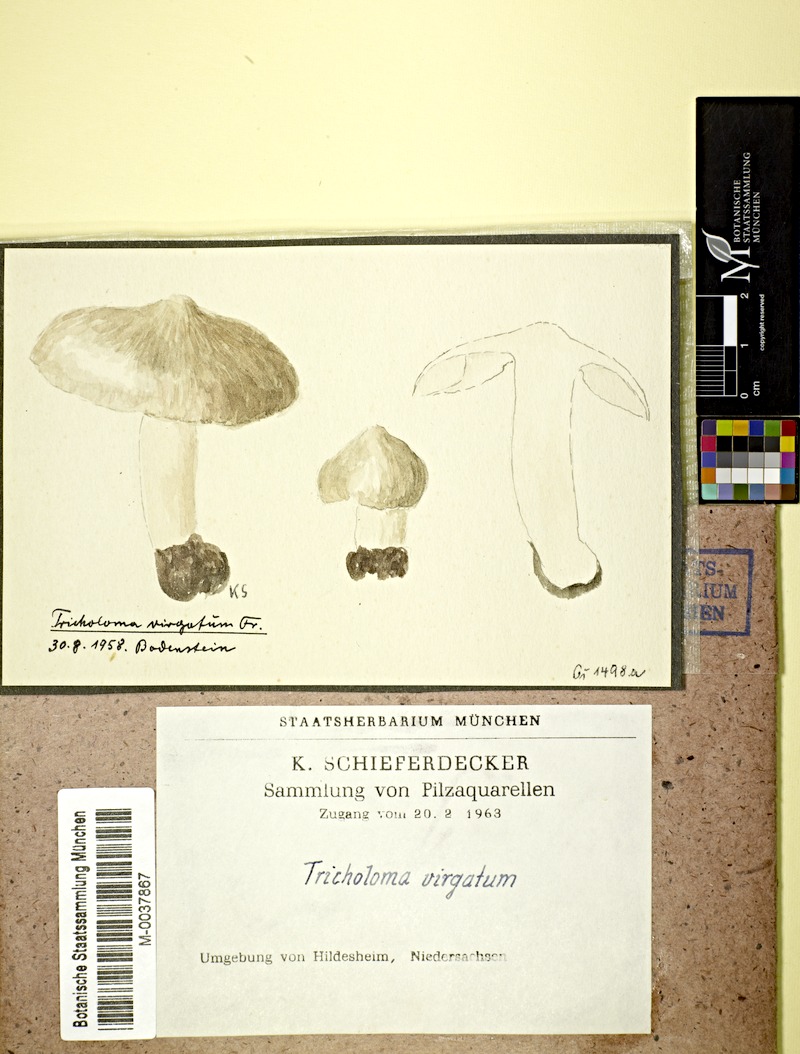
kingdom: Fungi
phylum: Basidiomycota
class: Agaricomycetes
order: Agaricales
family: Tricholomataceae
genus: Tricholoma
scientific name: Tricholoma virgatum
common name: Ashen knight
